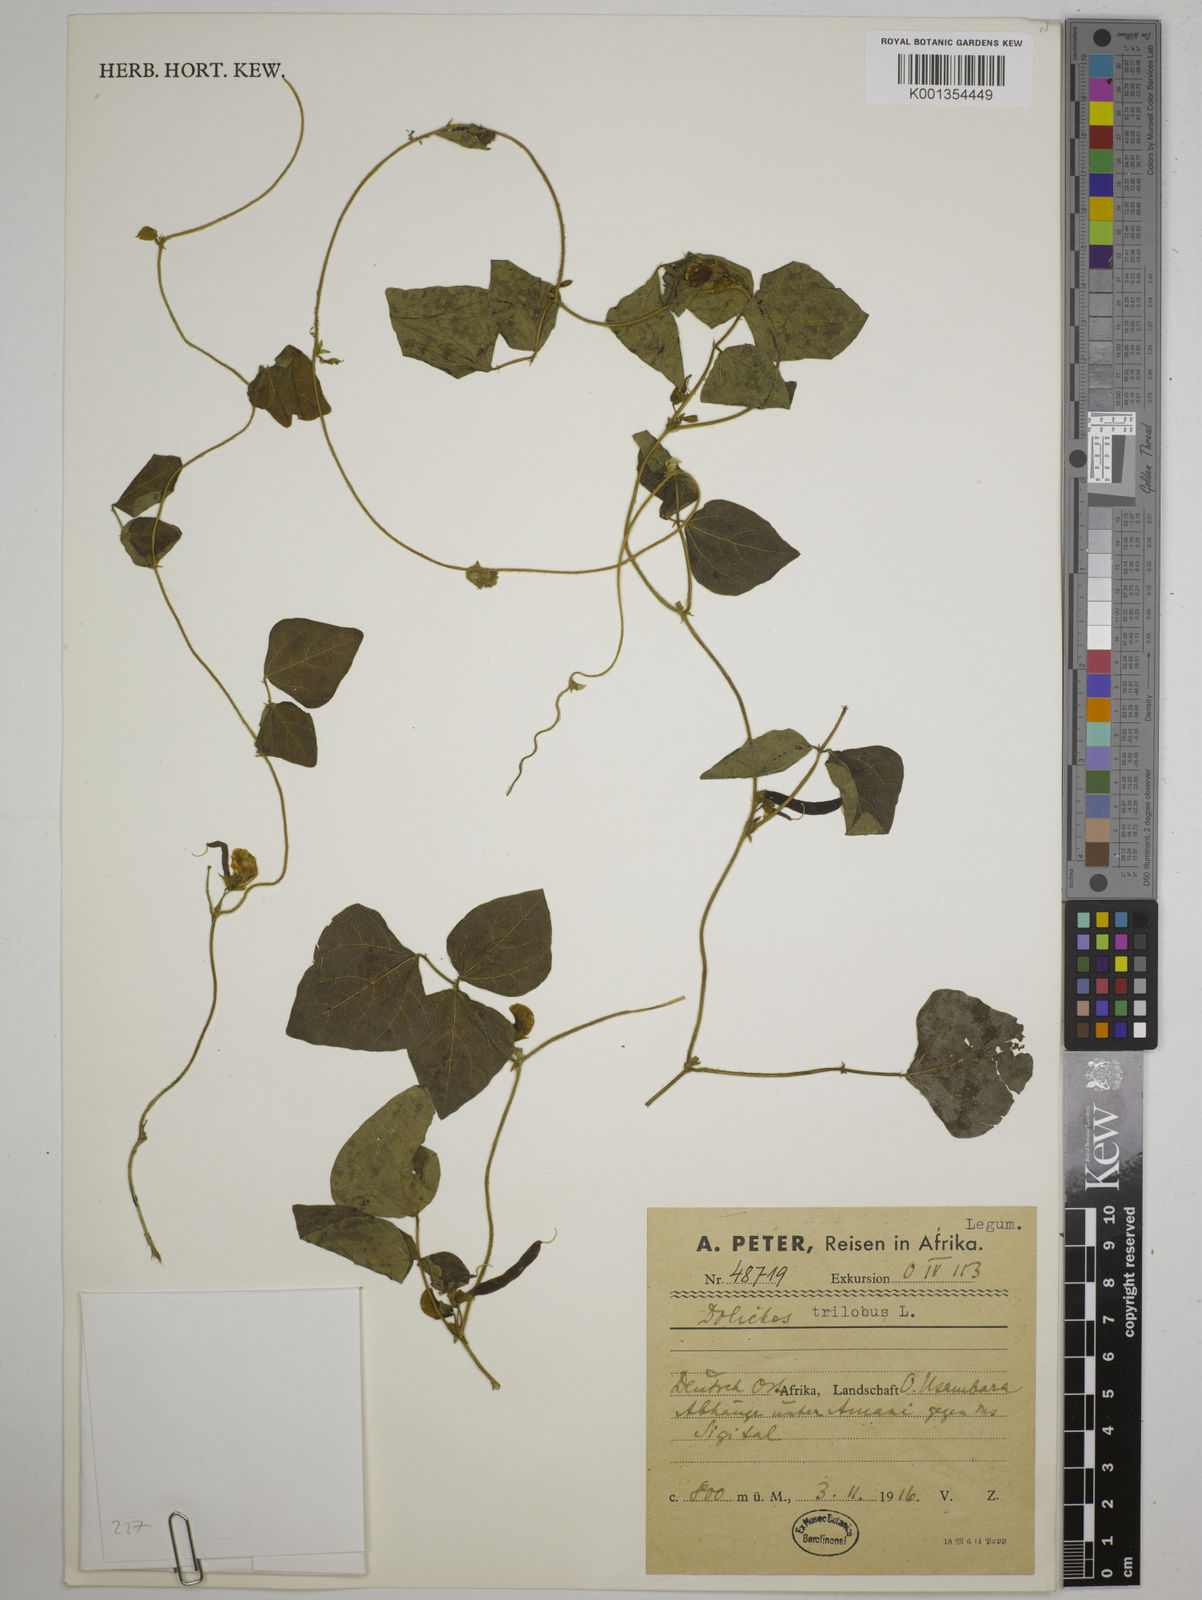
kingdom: Plantae
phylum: Tracheophyta
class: Magnoliopsida
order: Fabales
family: Fabaceae
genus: Dolichos
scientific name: Dolichos
